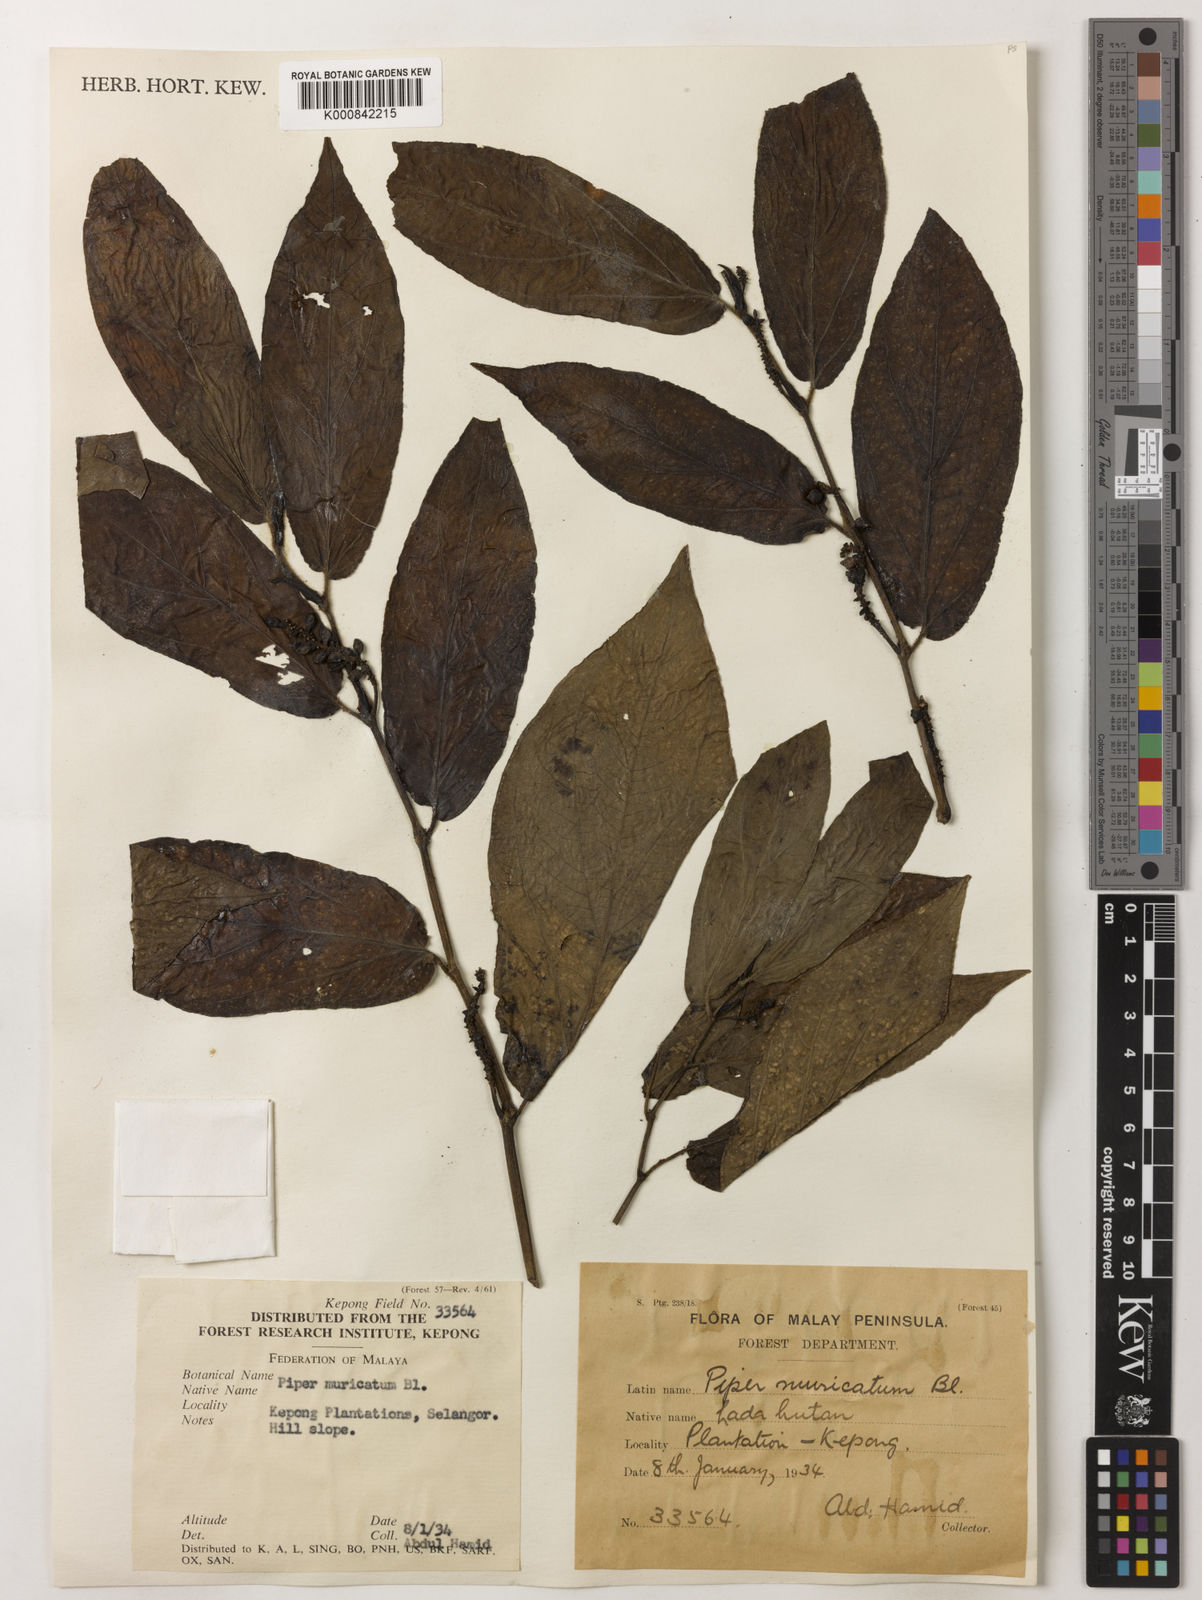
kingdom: Plantae
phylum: Tracheophyta
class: Magnoliopsida
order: Piperales
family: Piperaceae
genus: Piper
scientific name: Piper muricatum
